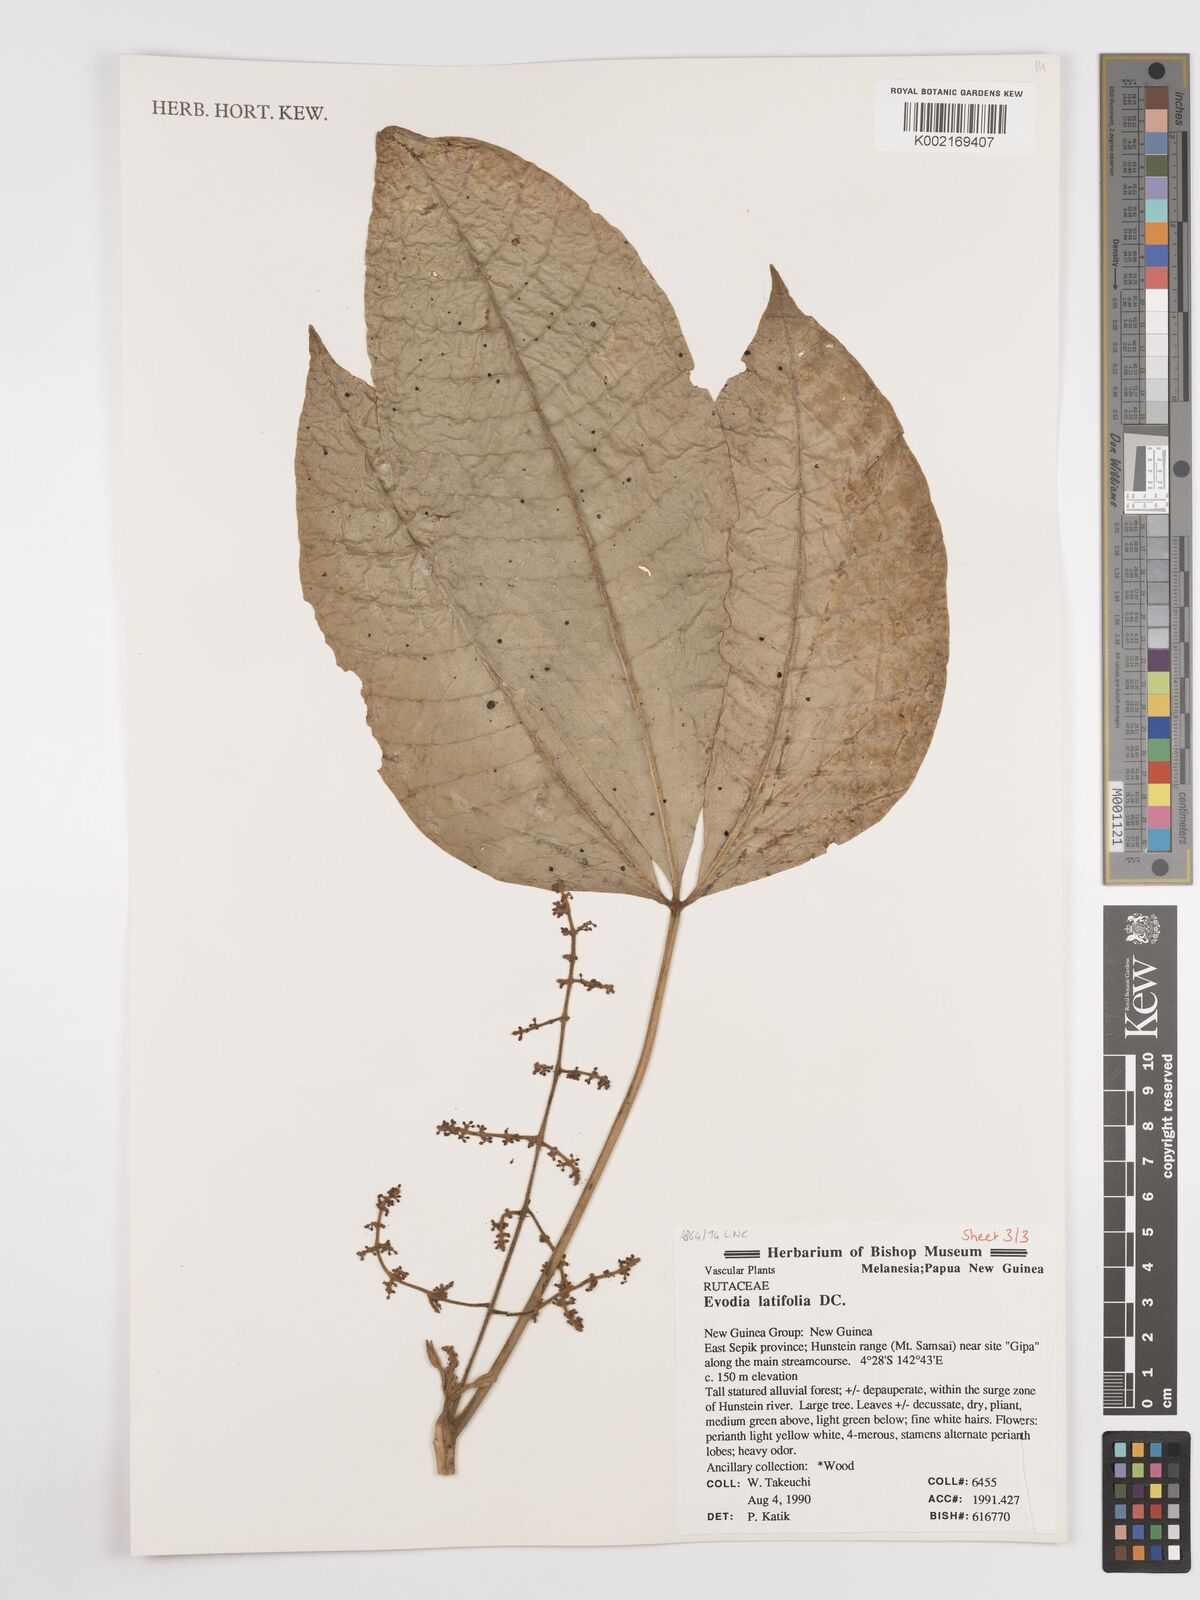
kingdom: Plantae
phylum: Tracheophyta
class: Magnoliopsida
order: Sapindales
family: Rutaceae
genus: Melicope
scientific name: Melicope latifolia
